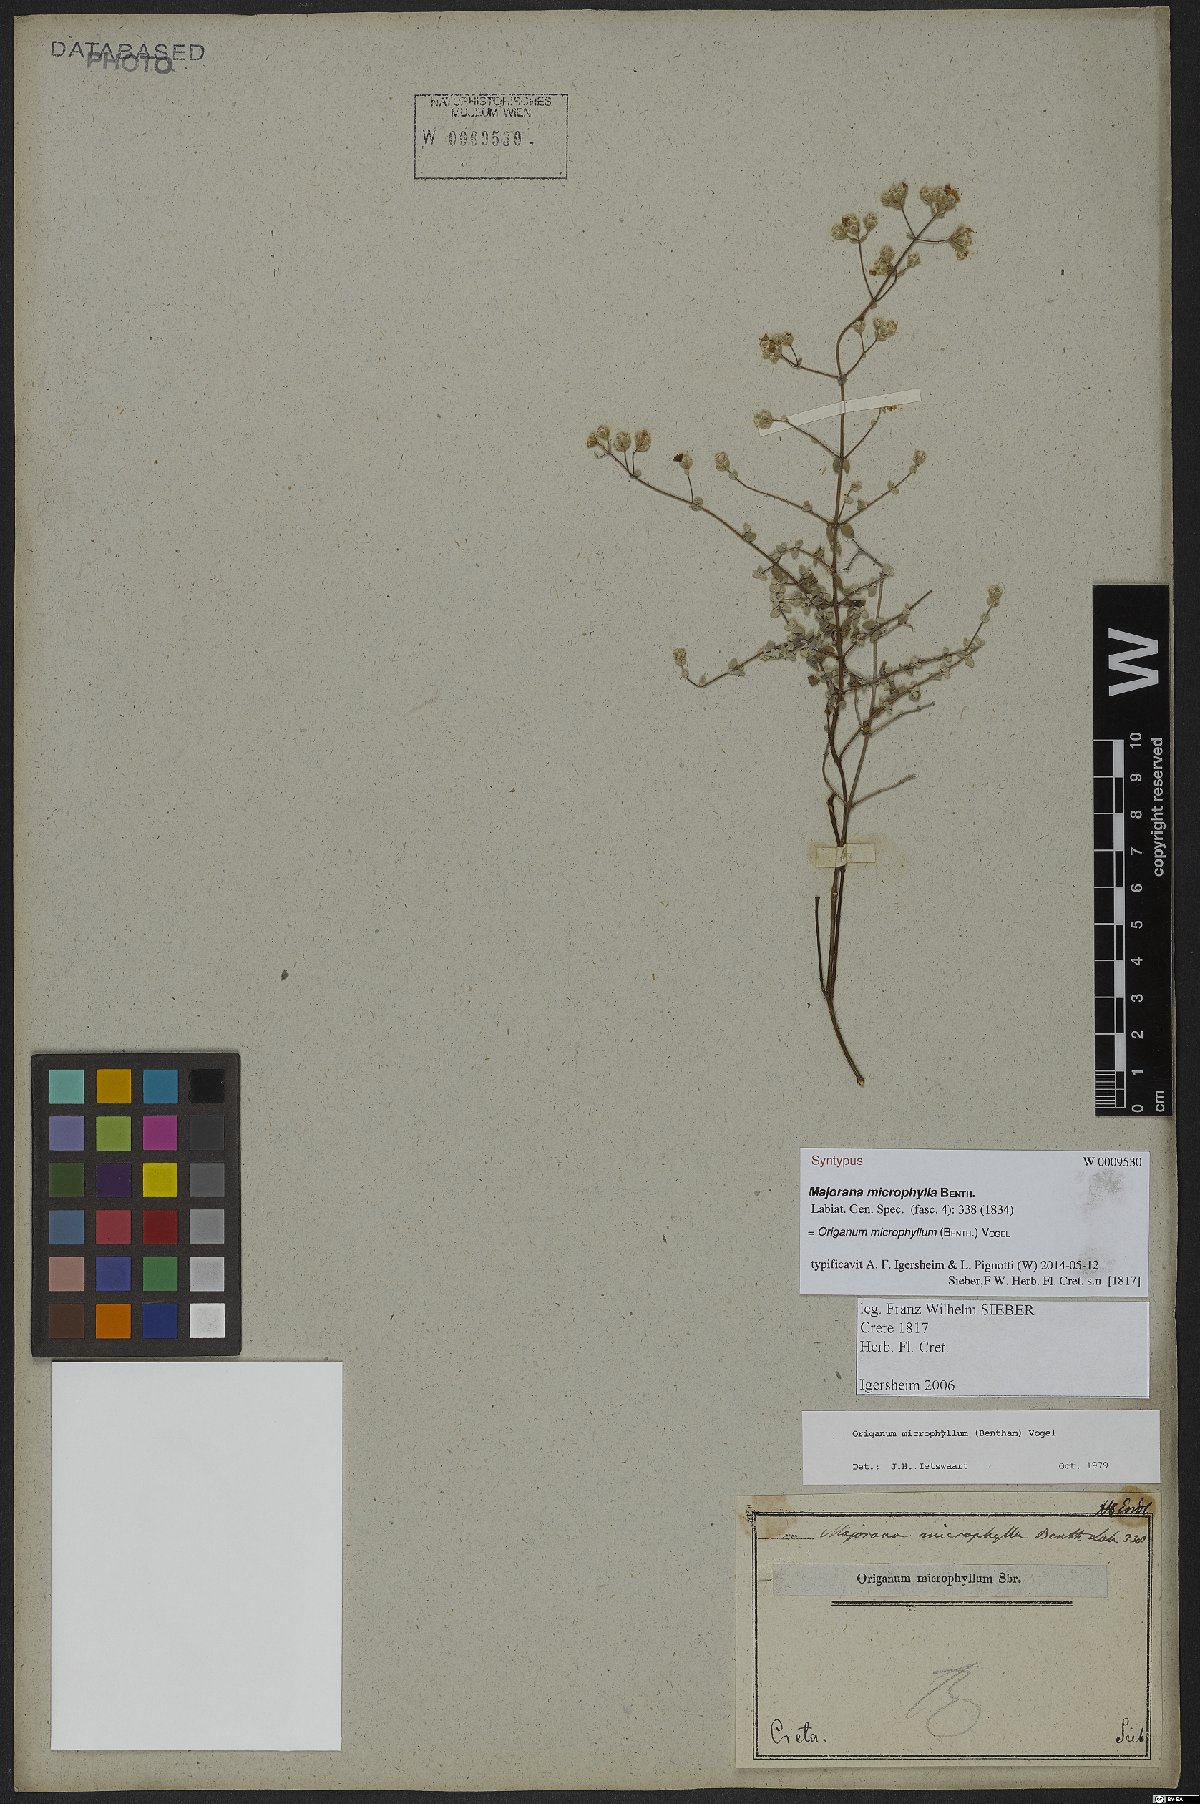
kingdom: Plantae
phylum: Tracheophyta
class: Magnoliopsida
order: Lamiales
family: Lamiaceae
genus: Origanum
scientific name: Origanum microphyllum
